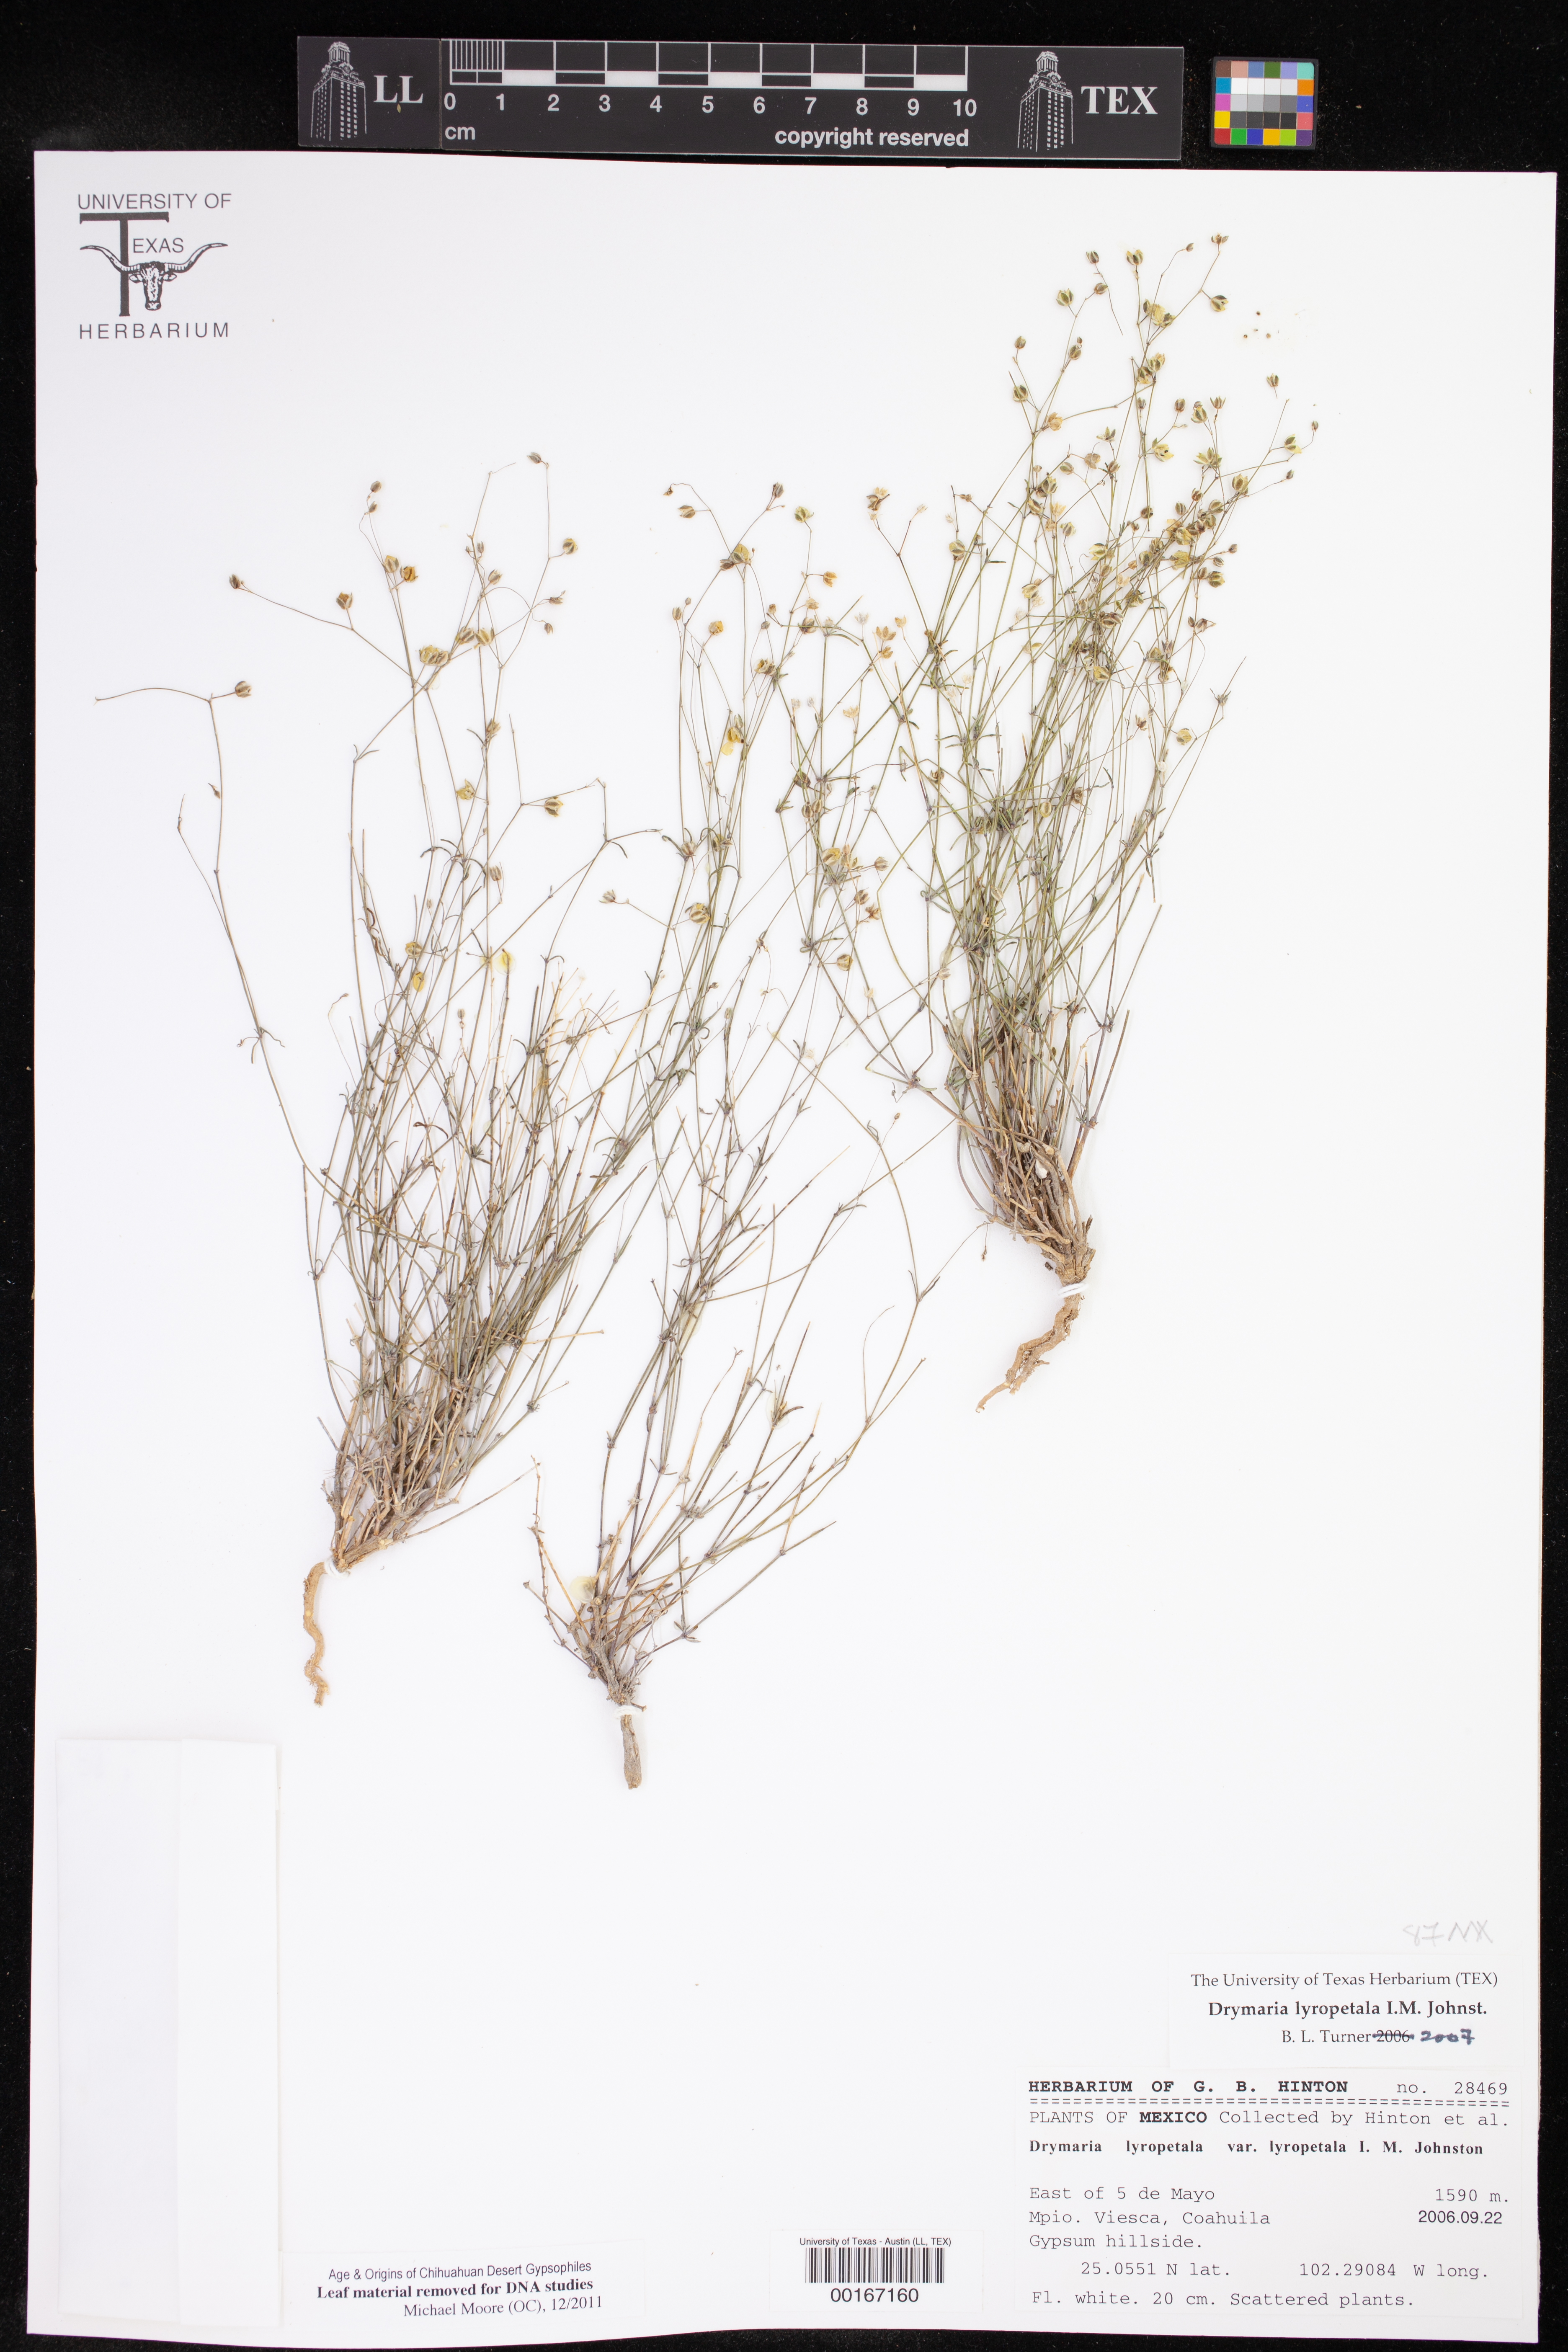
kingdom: Plantae
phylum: Tracheophyta
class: Magnoliopsida
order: Caryophyllales
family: Caryophyllaceae
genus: Drymaria
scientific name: Drymaria lyropetala
